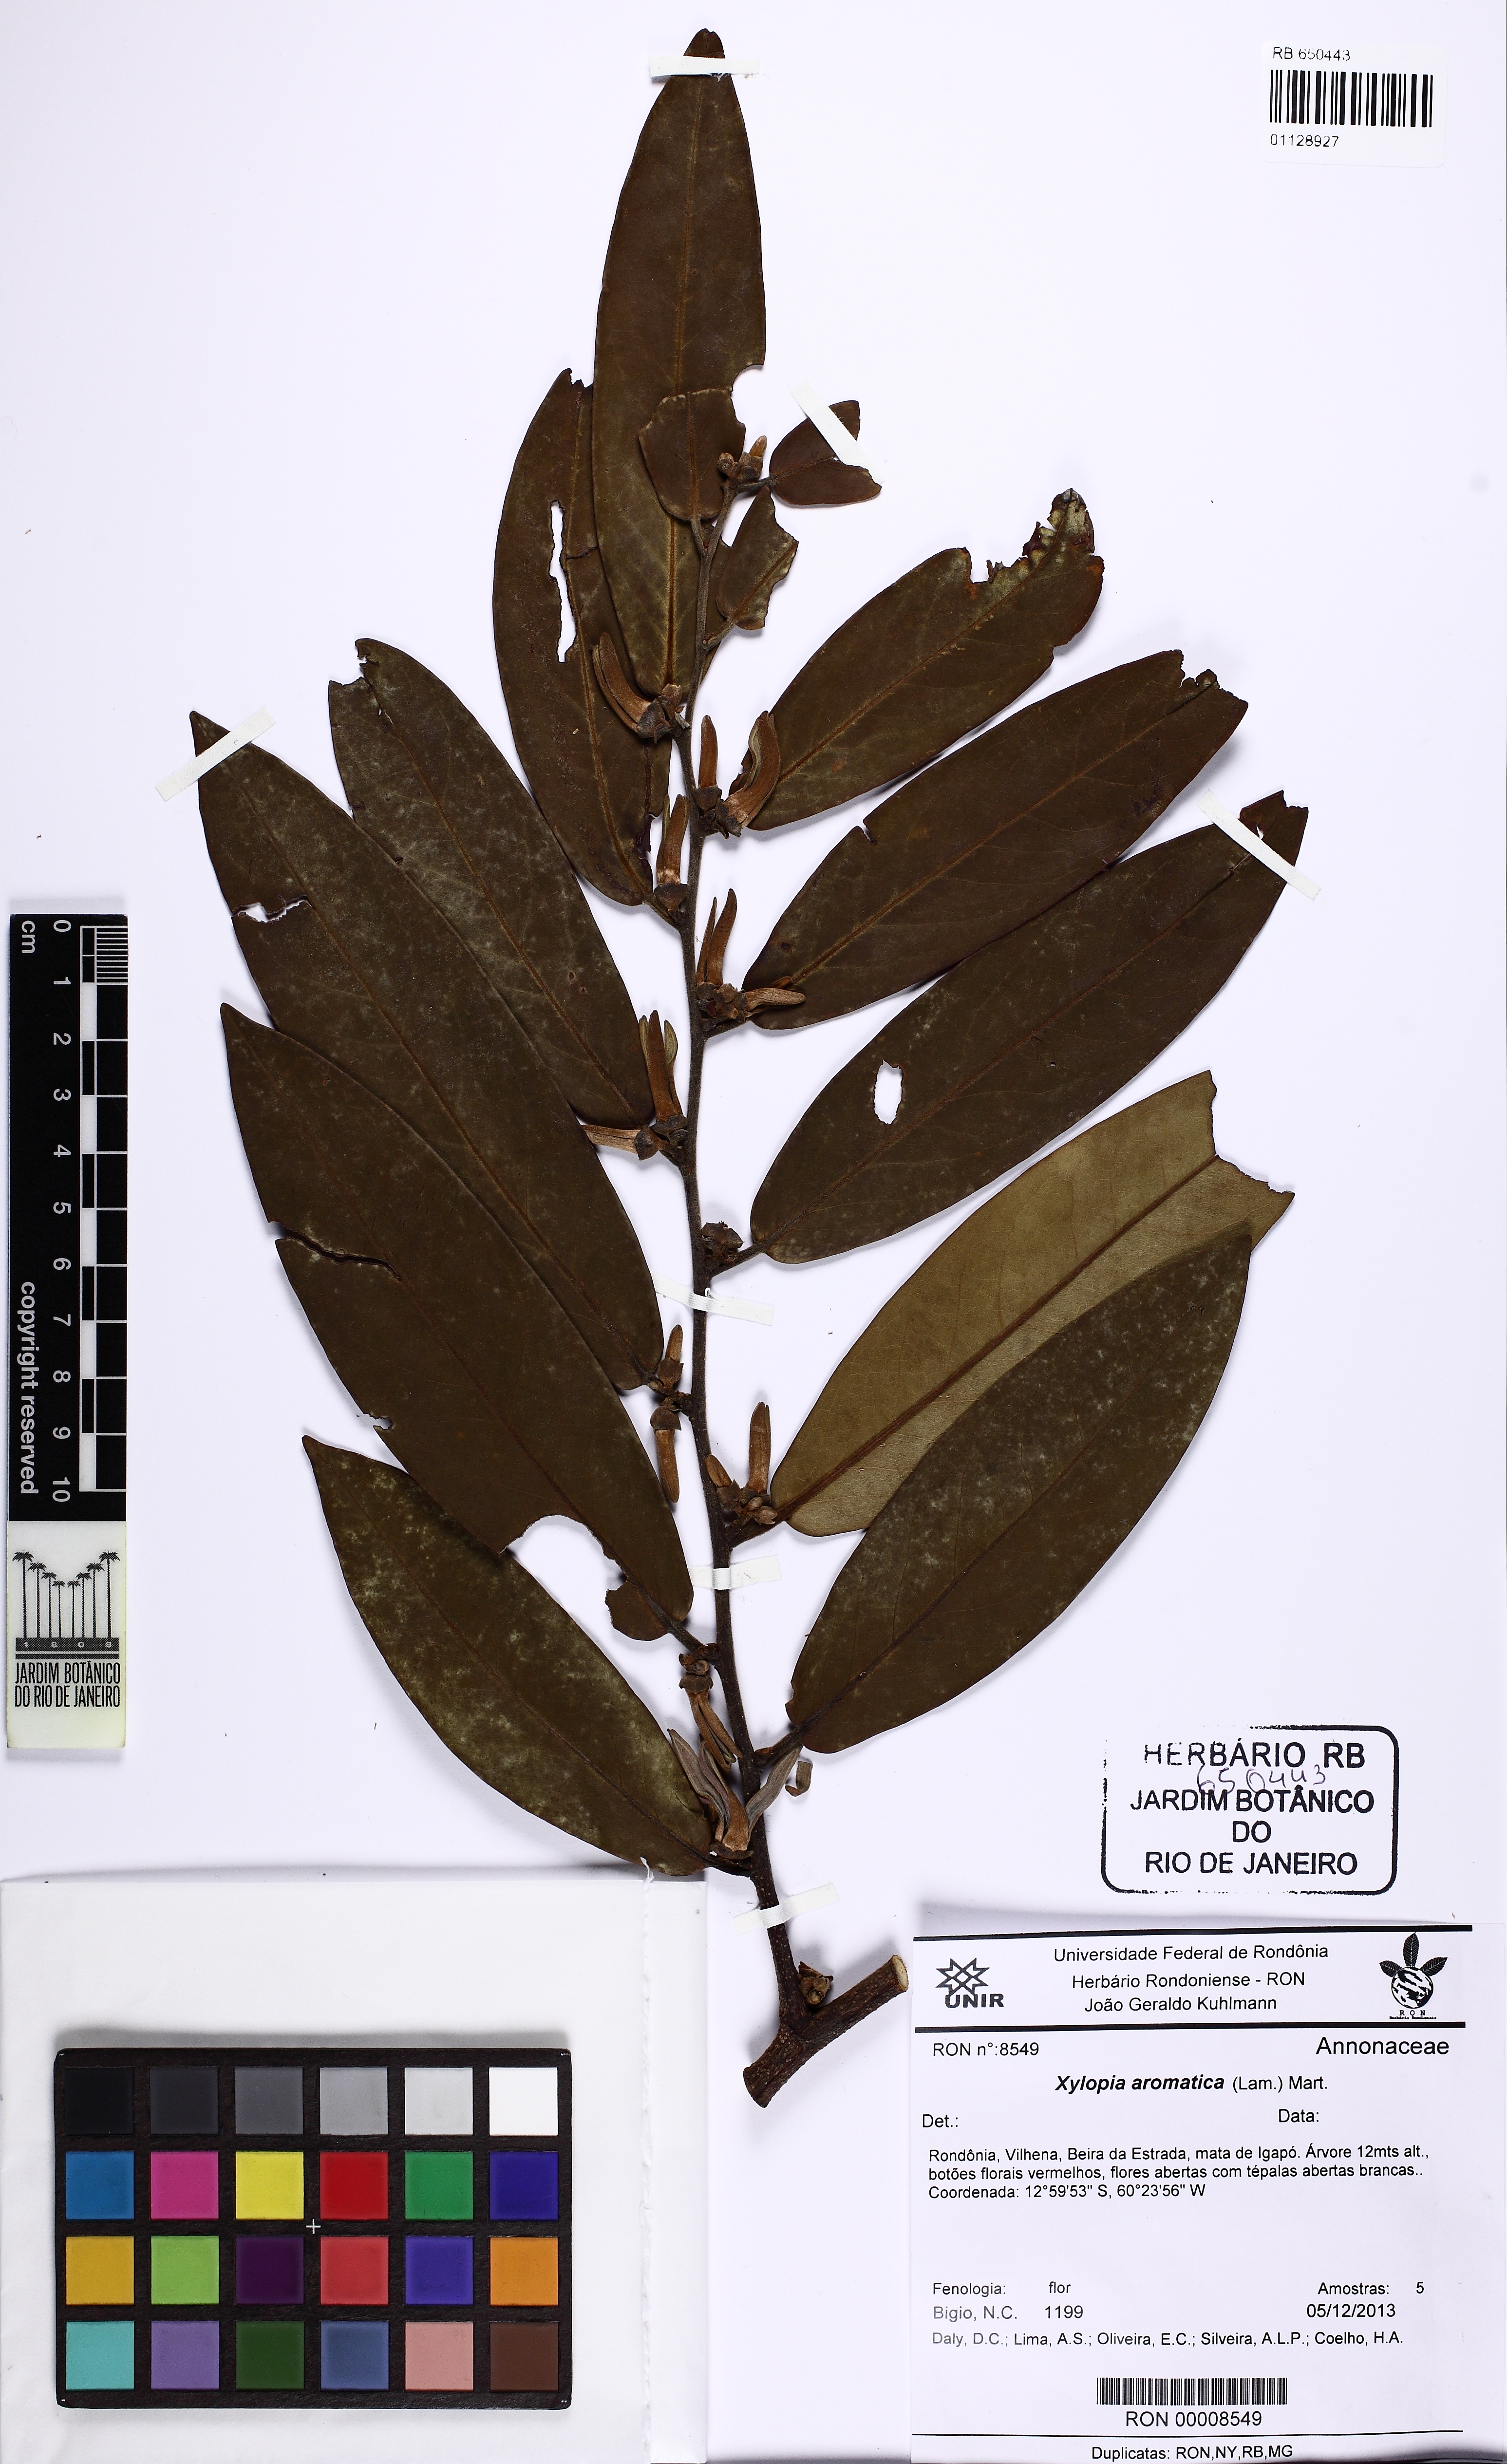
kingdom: Plantae
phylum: Tracheophyta
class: Magnoliopsida
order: Magnoliales
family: Annonaceae
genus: Xylopia
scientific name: Xylopia aromatica
